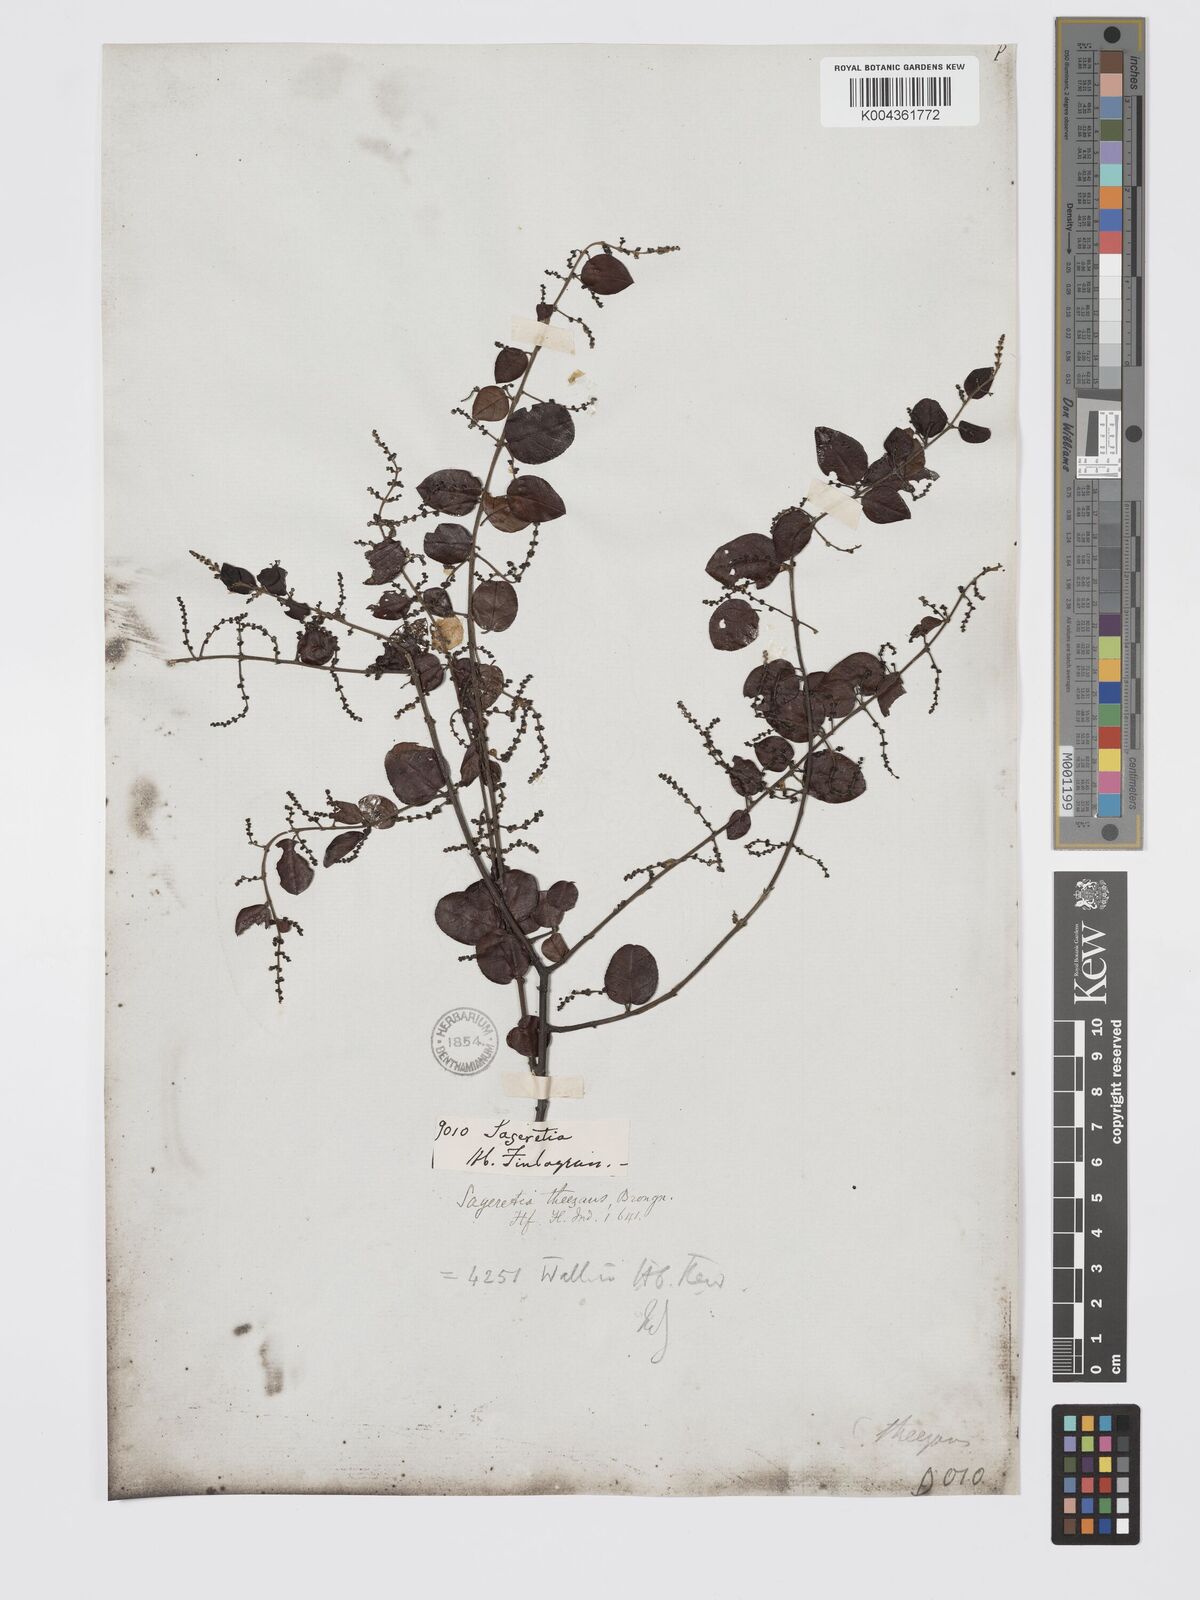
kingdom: Plantae
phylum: Tracheophyta
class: Magnoliopsida
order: Rosales
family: Rhamnaceae
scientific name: Rhamnaceae
